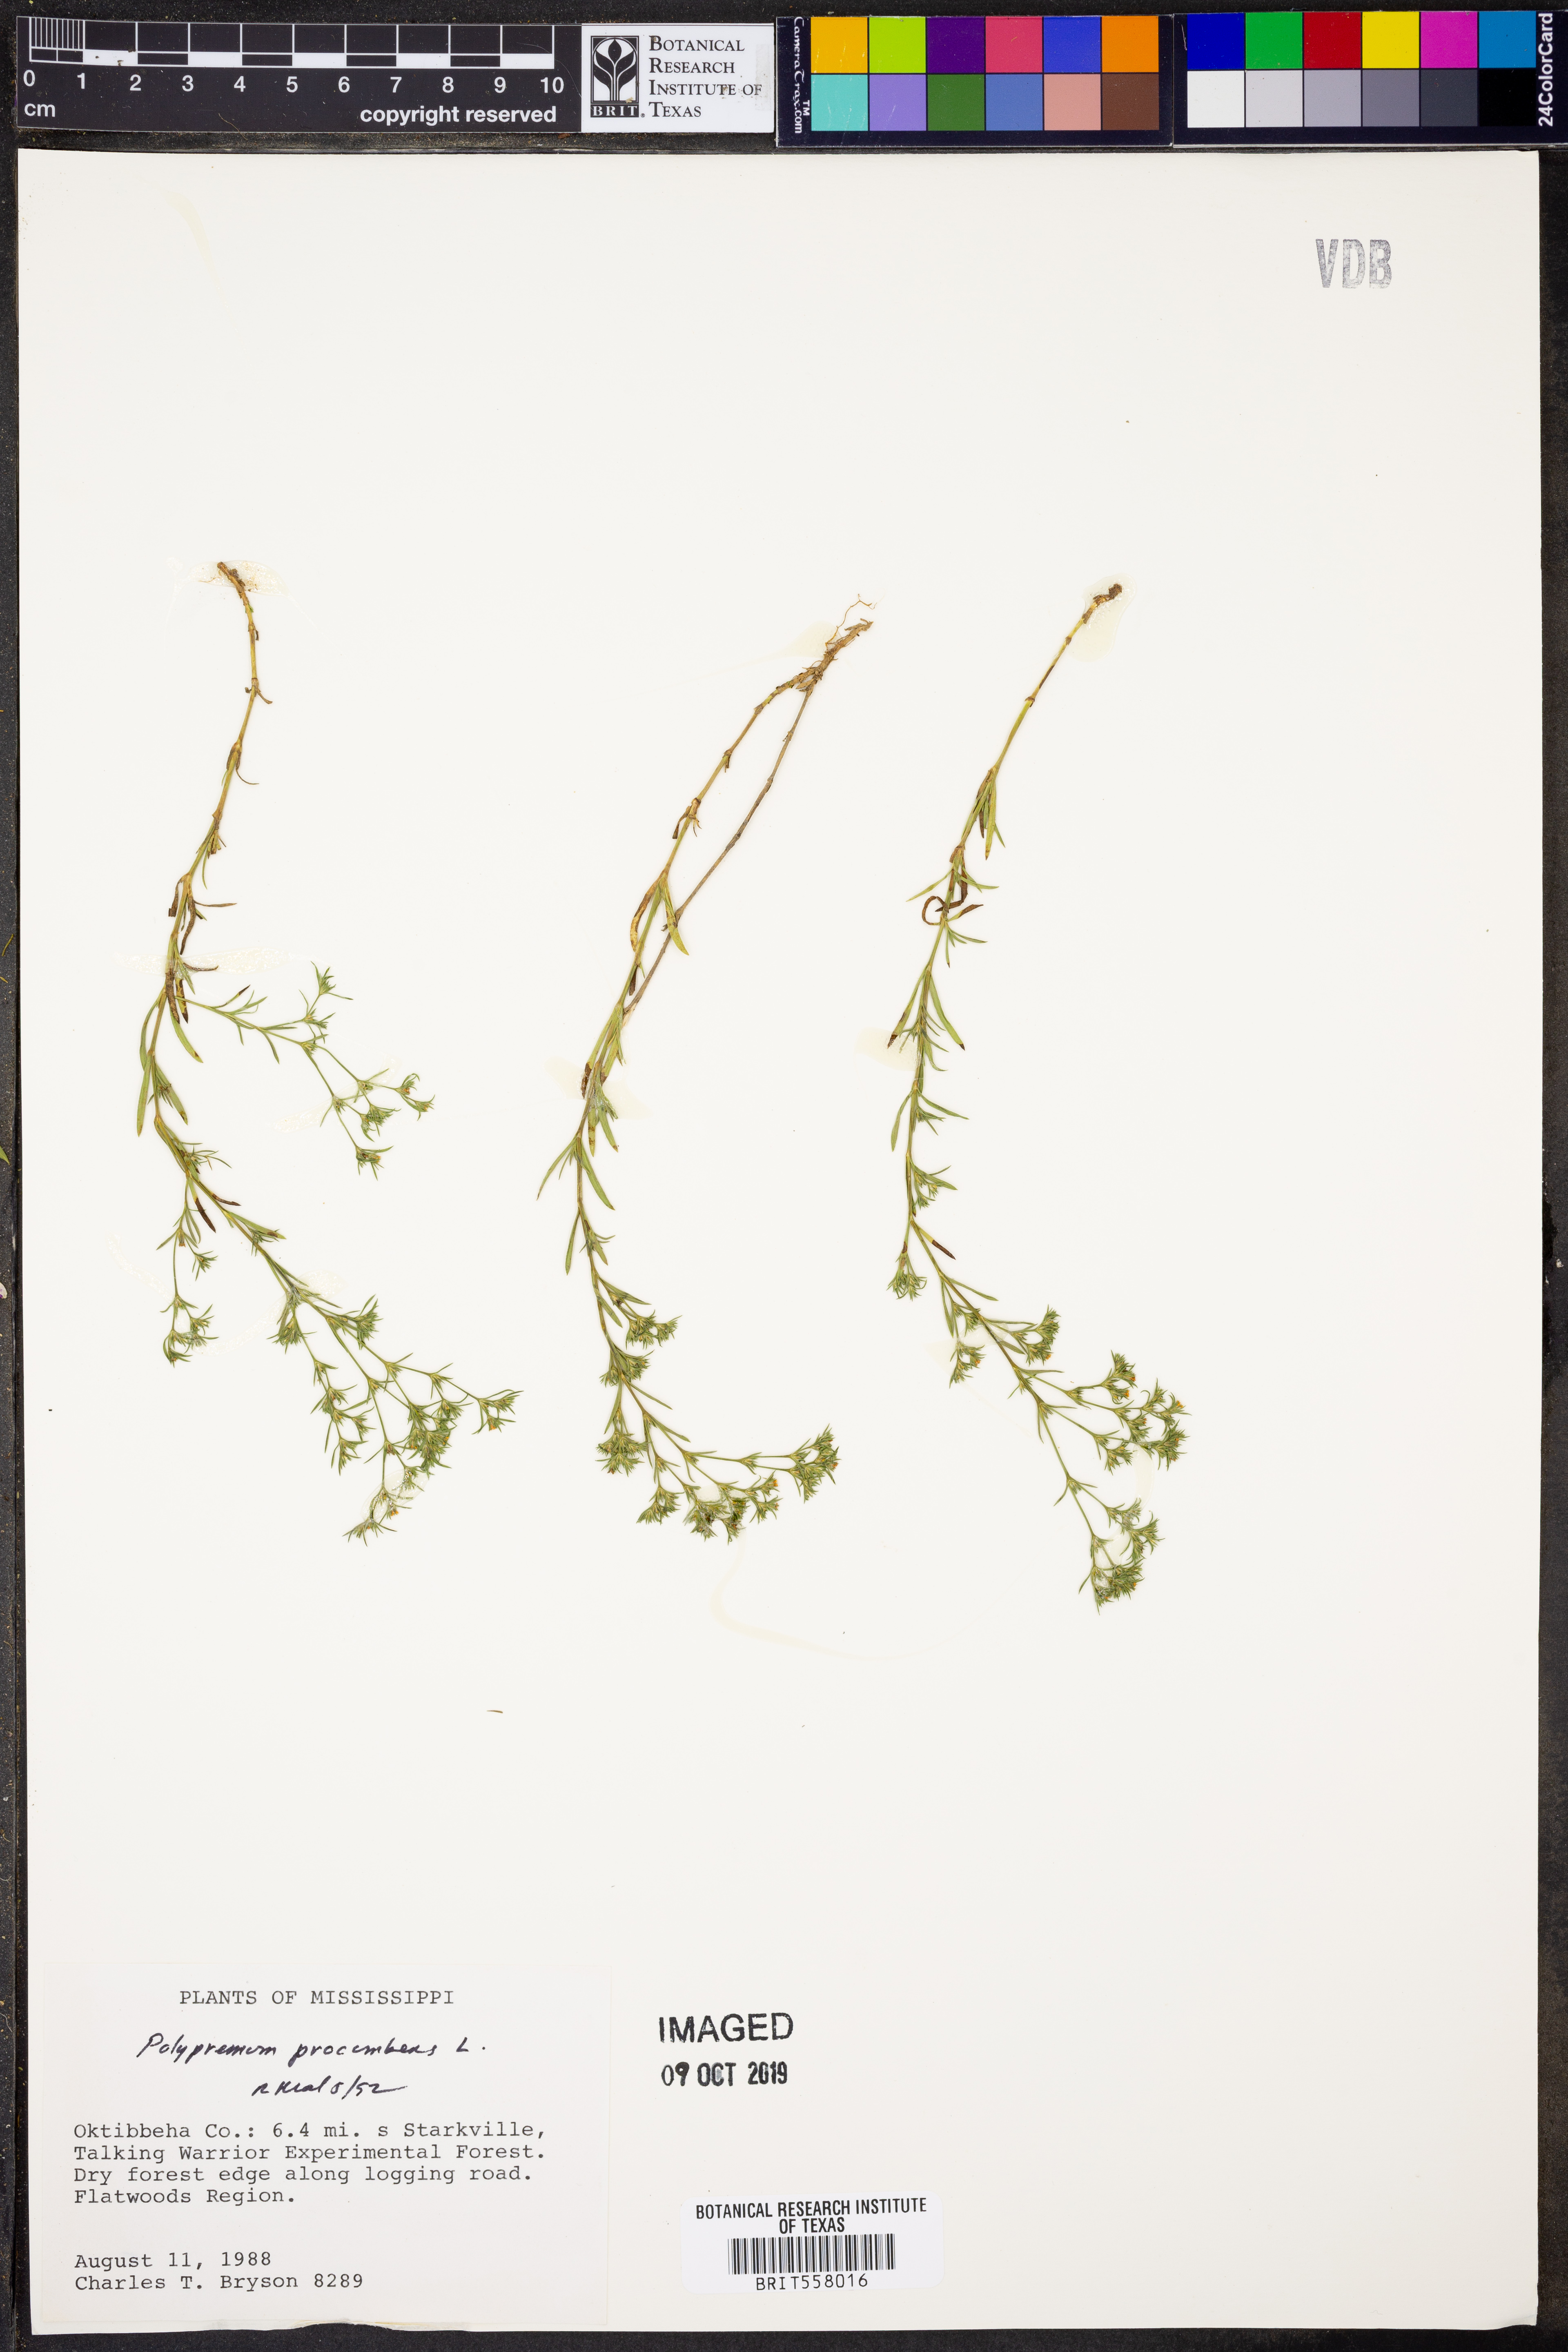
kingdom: Plantae
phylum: Tracheophyta
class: Magnoliopsida
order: Lamiales
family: Tetrachondraceae
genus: Polypremum
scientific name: Polypremum procumbens
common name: Juniper-leaf
